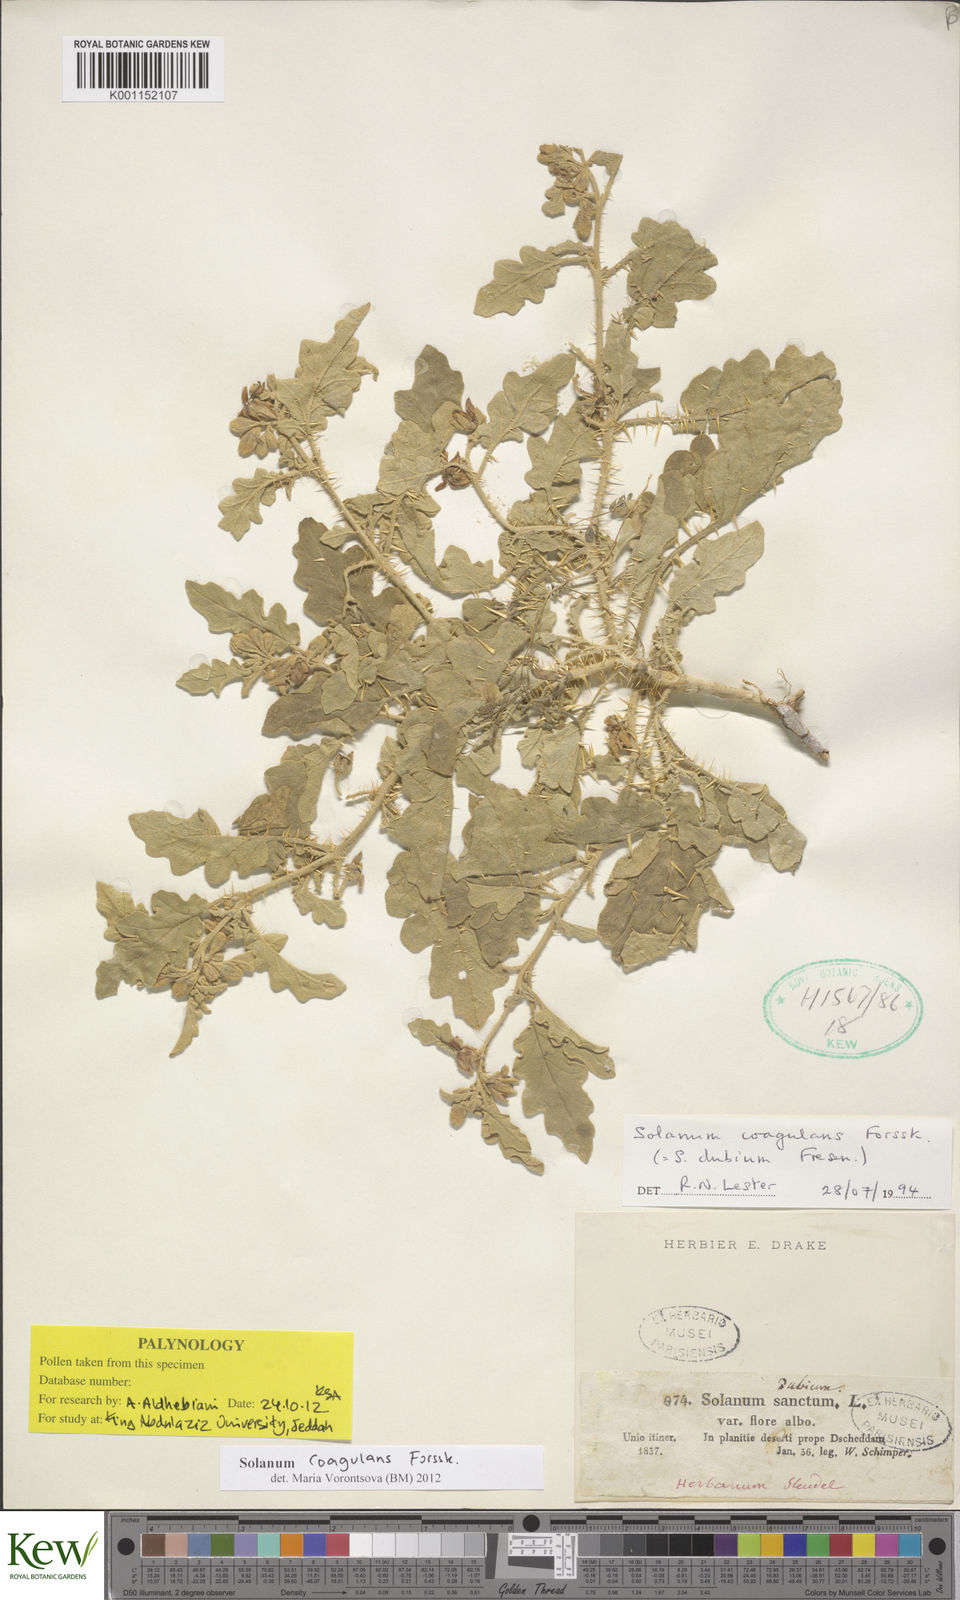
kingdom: Plantae
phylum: Tracheophyta
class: Magnoliopsida
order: Solanales
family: Solanaceae
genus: Solanum
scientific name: Solanum coagulans
